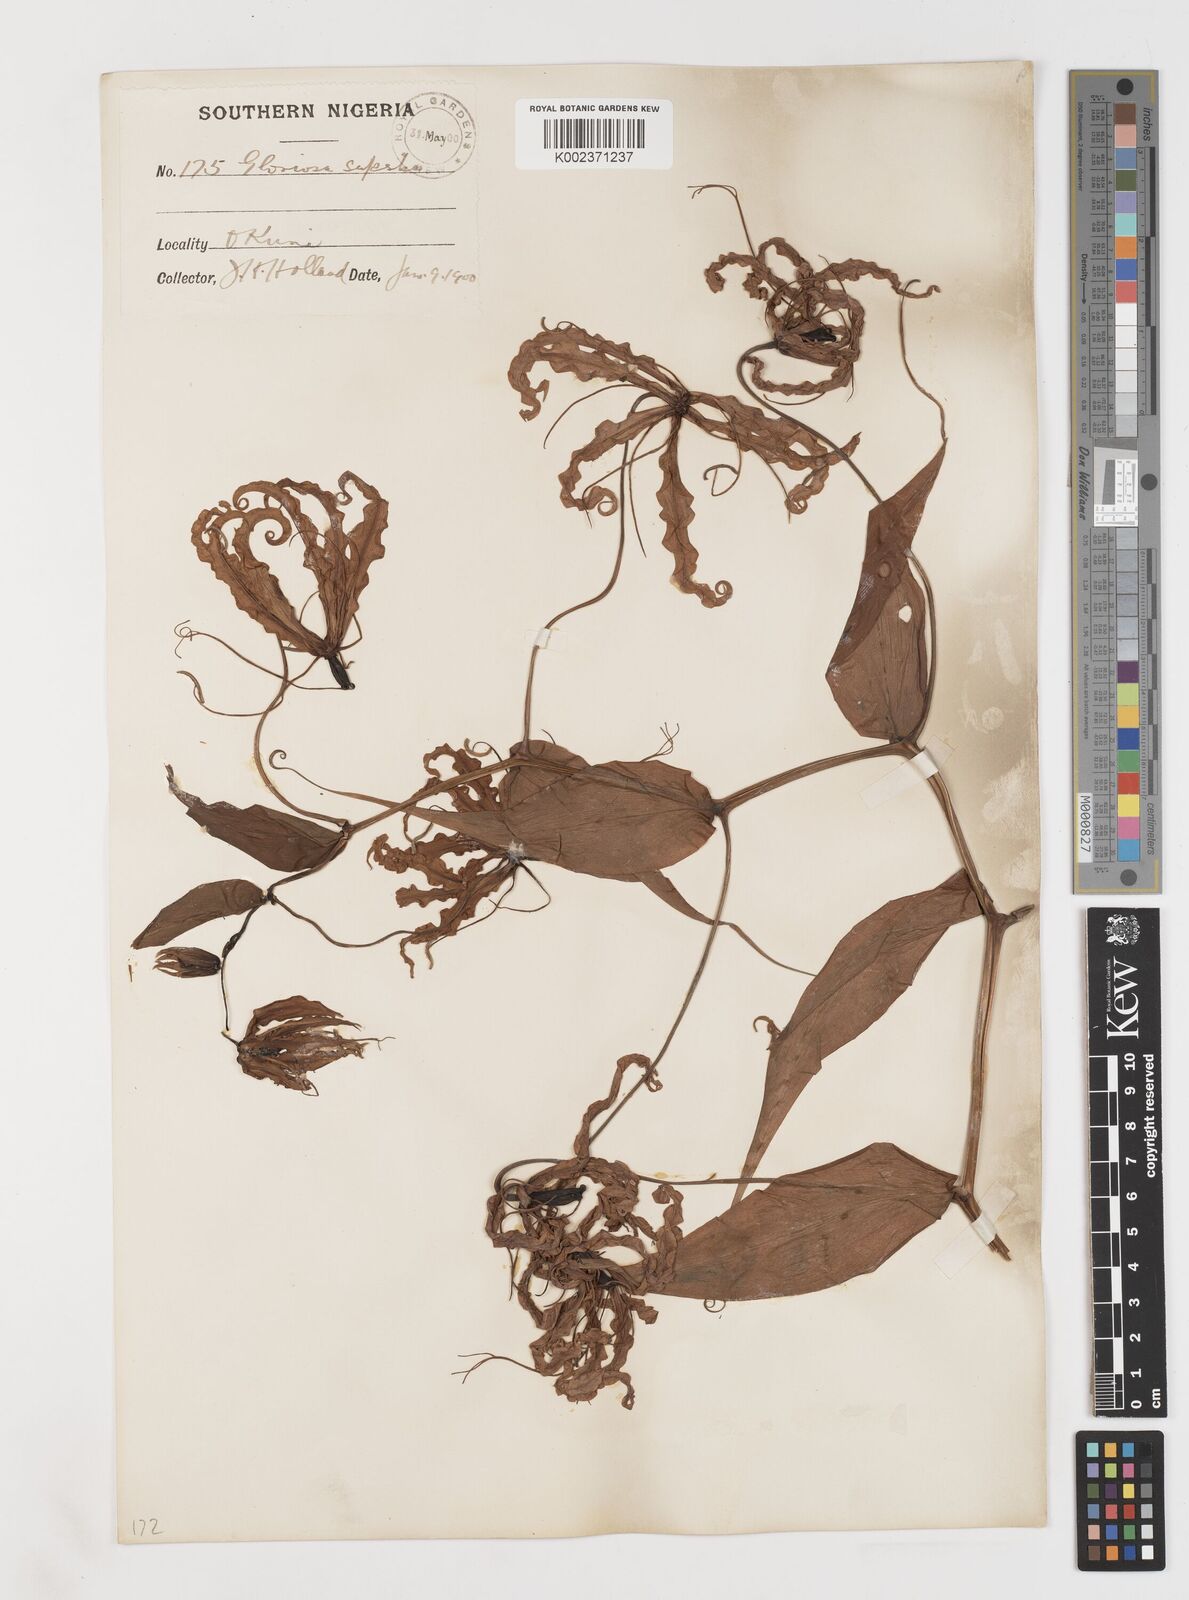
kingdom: Plantae
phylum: Tracheophyta
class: Liliopsida
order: Liliales
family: Colchicaceae
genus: Gloriosa
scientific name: Gloriosa superba
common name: Flame lily
